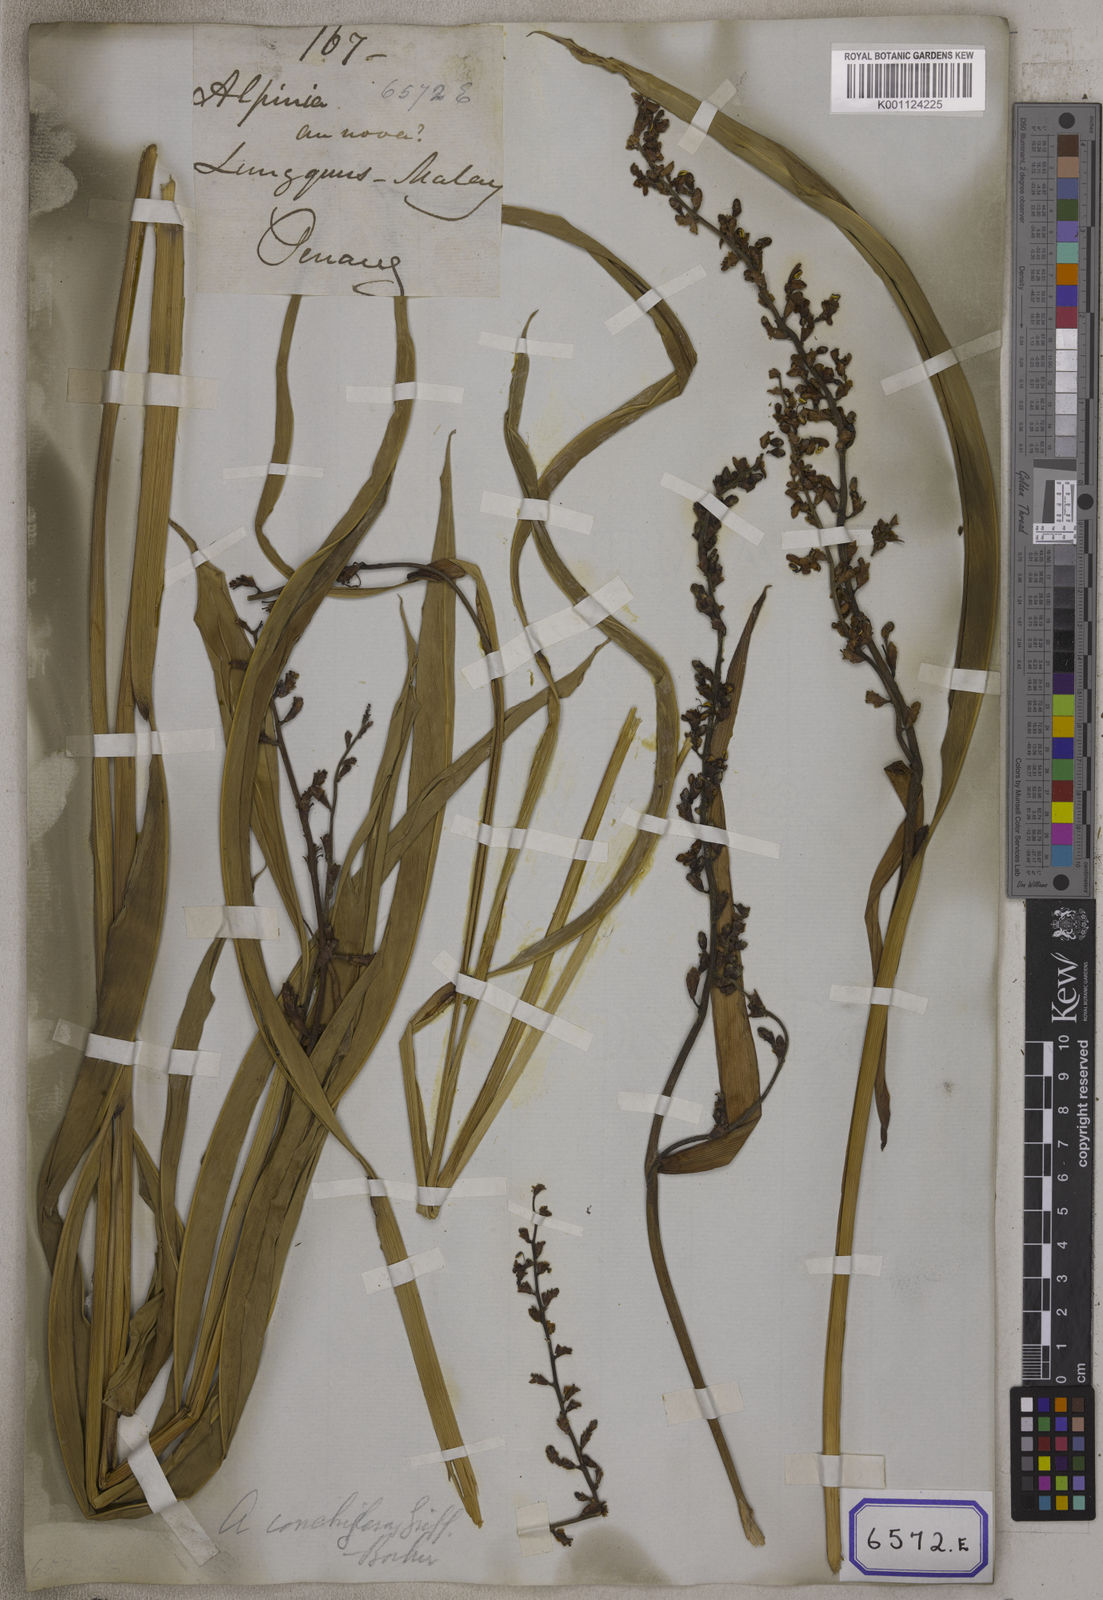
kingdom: Plantae
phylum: Tracheophyta
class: Liliopsida
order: Zingiberales
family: Zingiberaceae
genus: Alpinia
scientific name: Alpinia galanga
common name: Siamese-ginger
